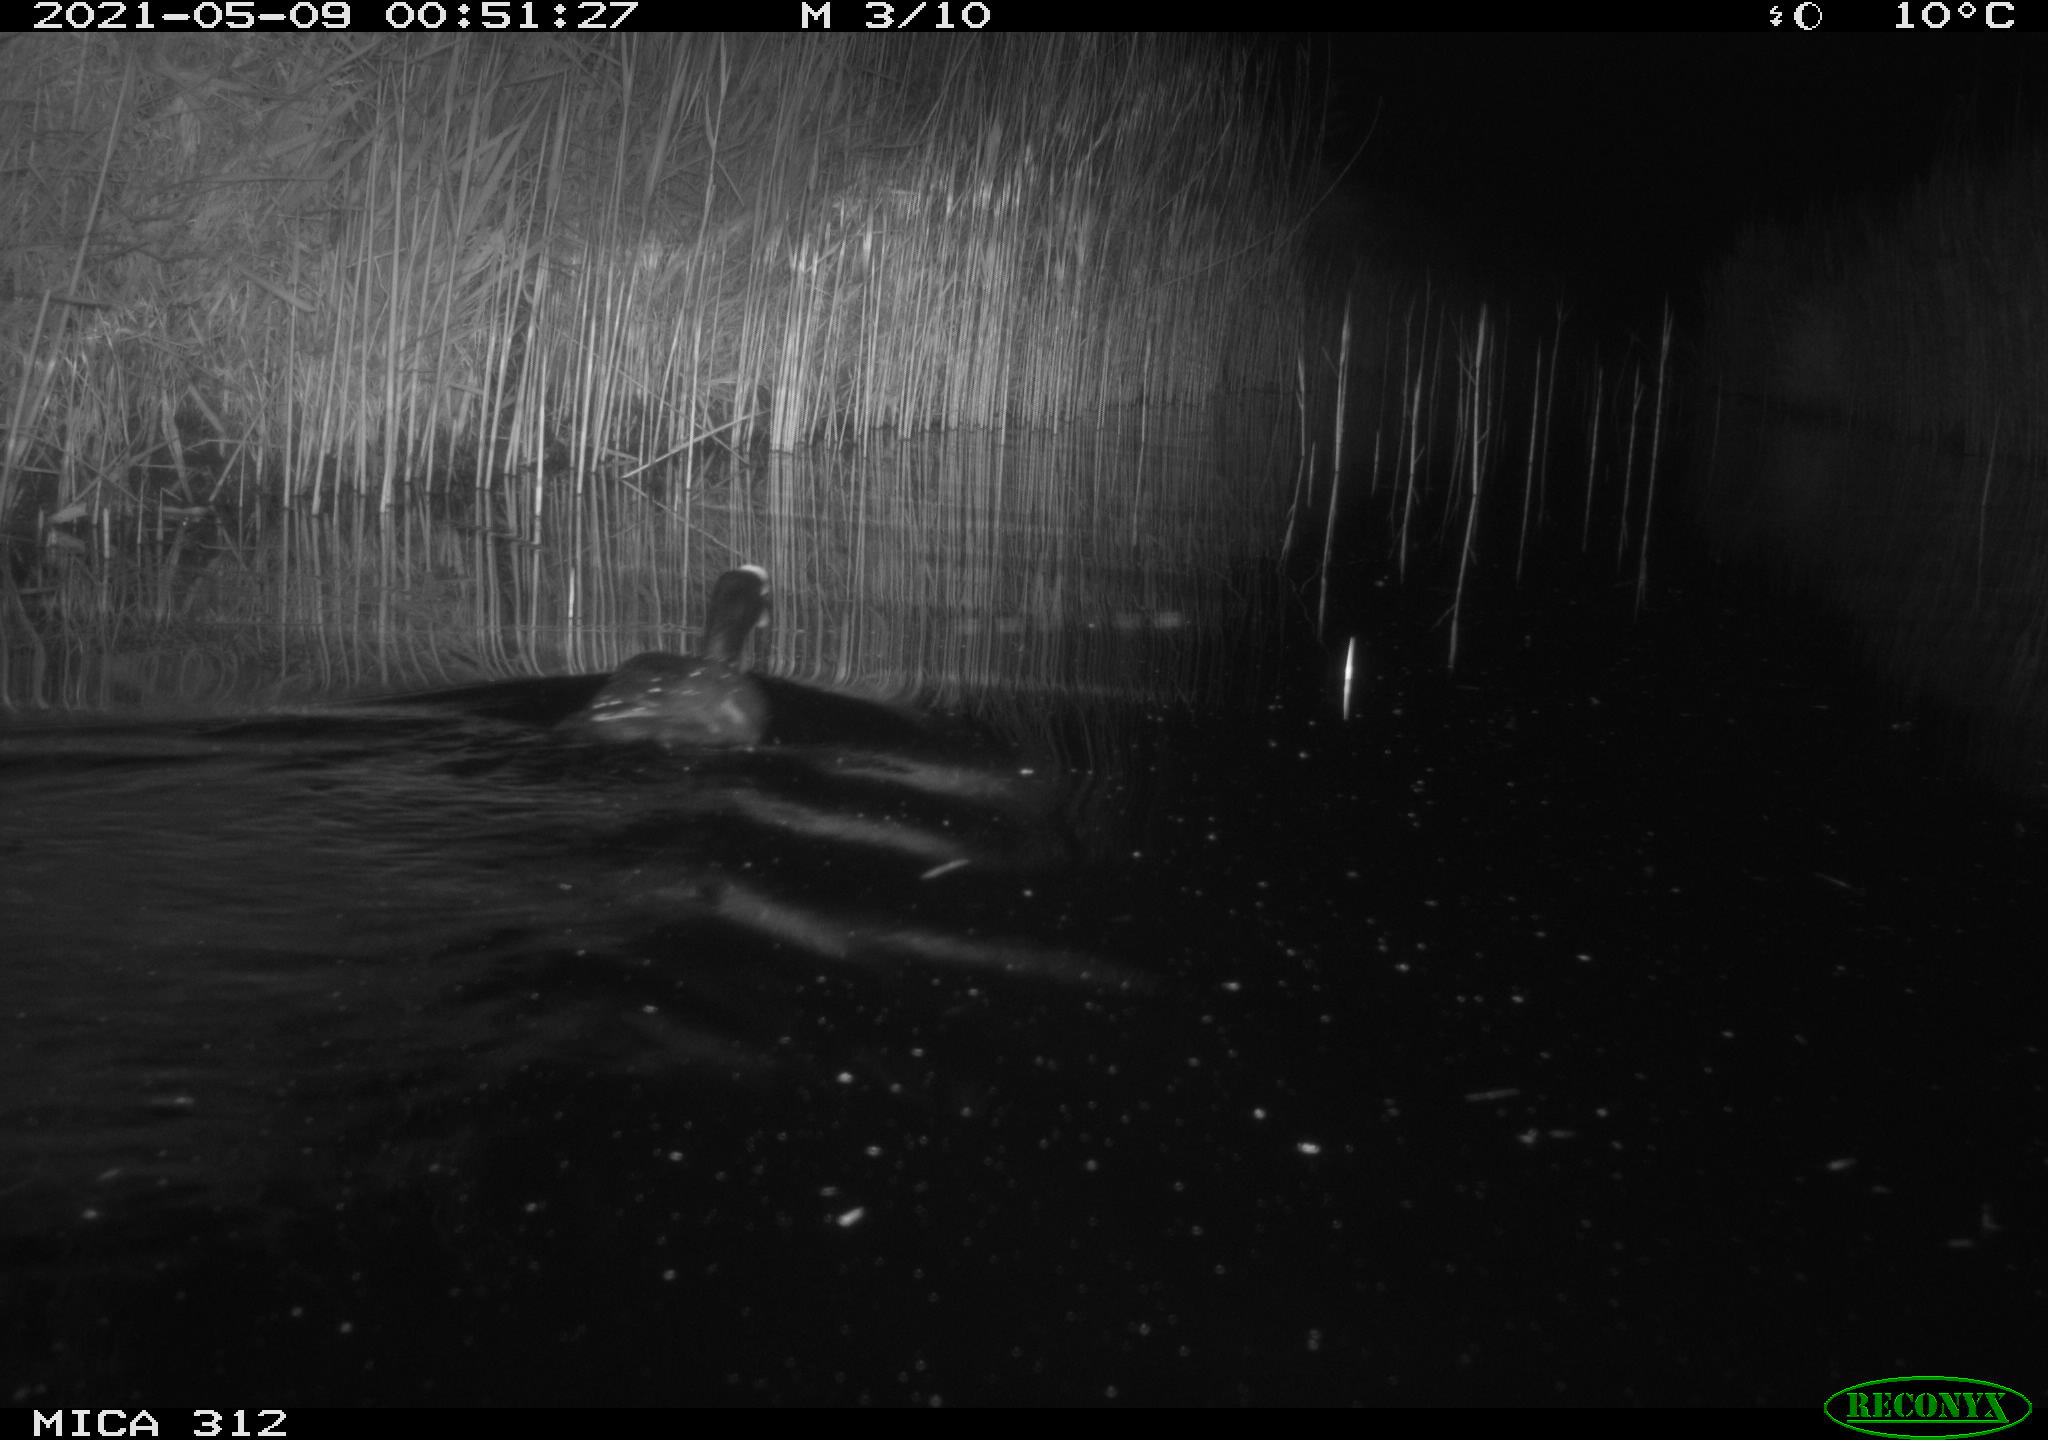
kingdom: Animalia
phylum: Chordata
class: Aves
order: Gruiformes
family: Rallidae
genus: Fulica
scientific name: Fulica atra
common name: Eurasian coot
